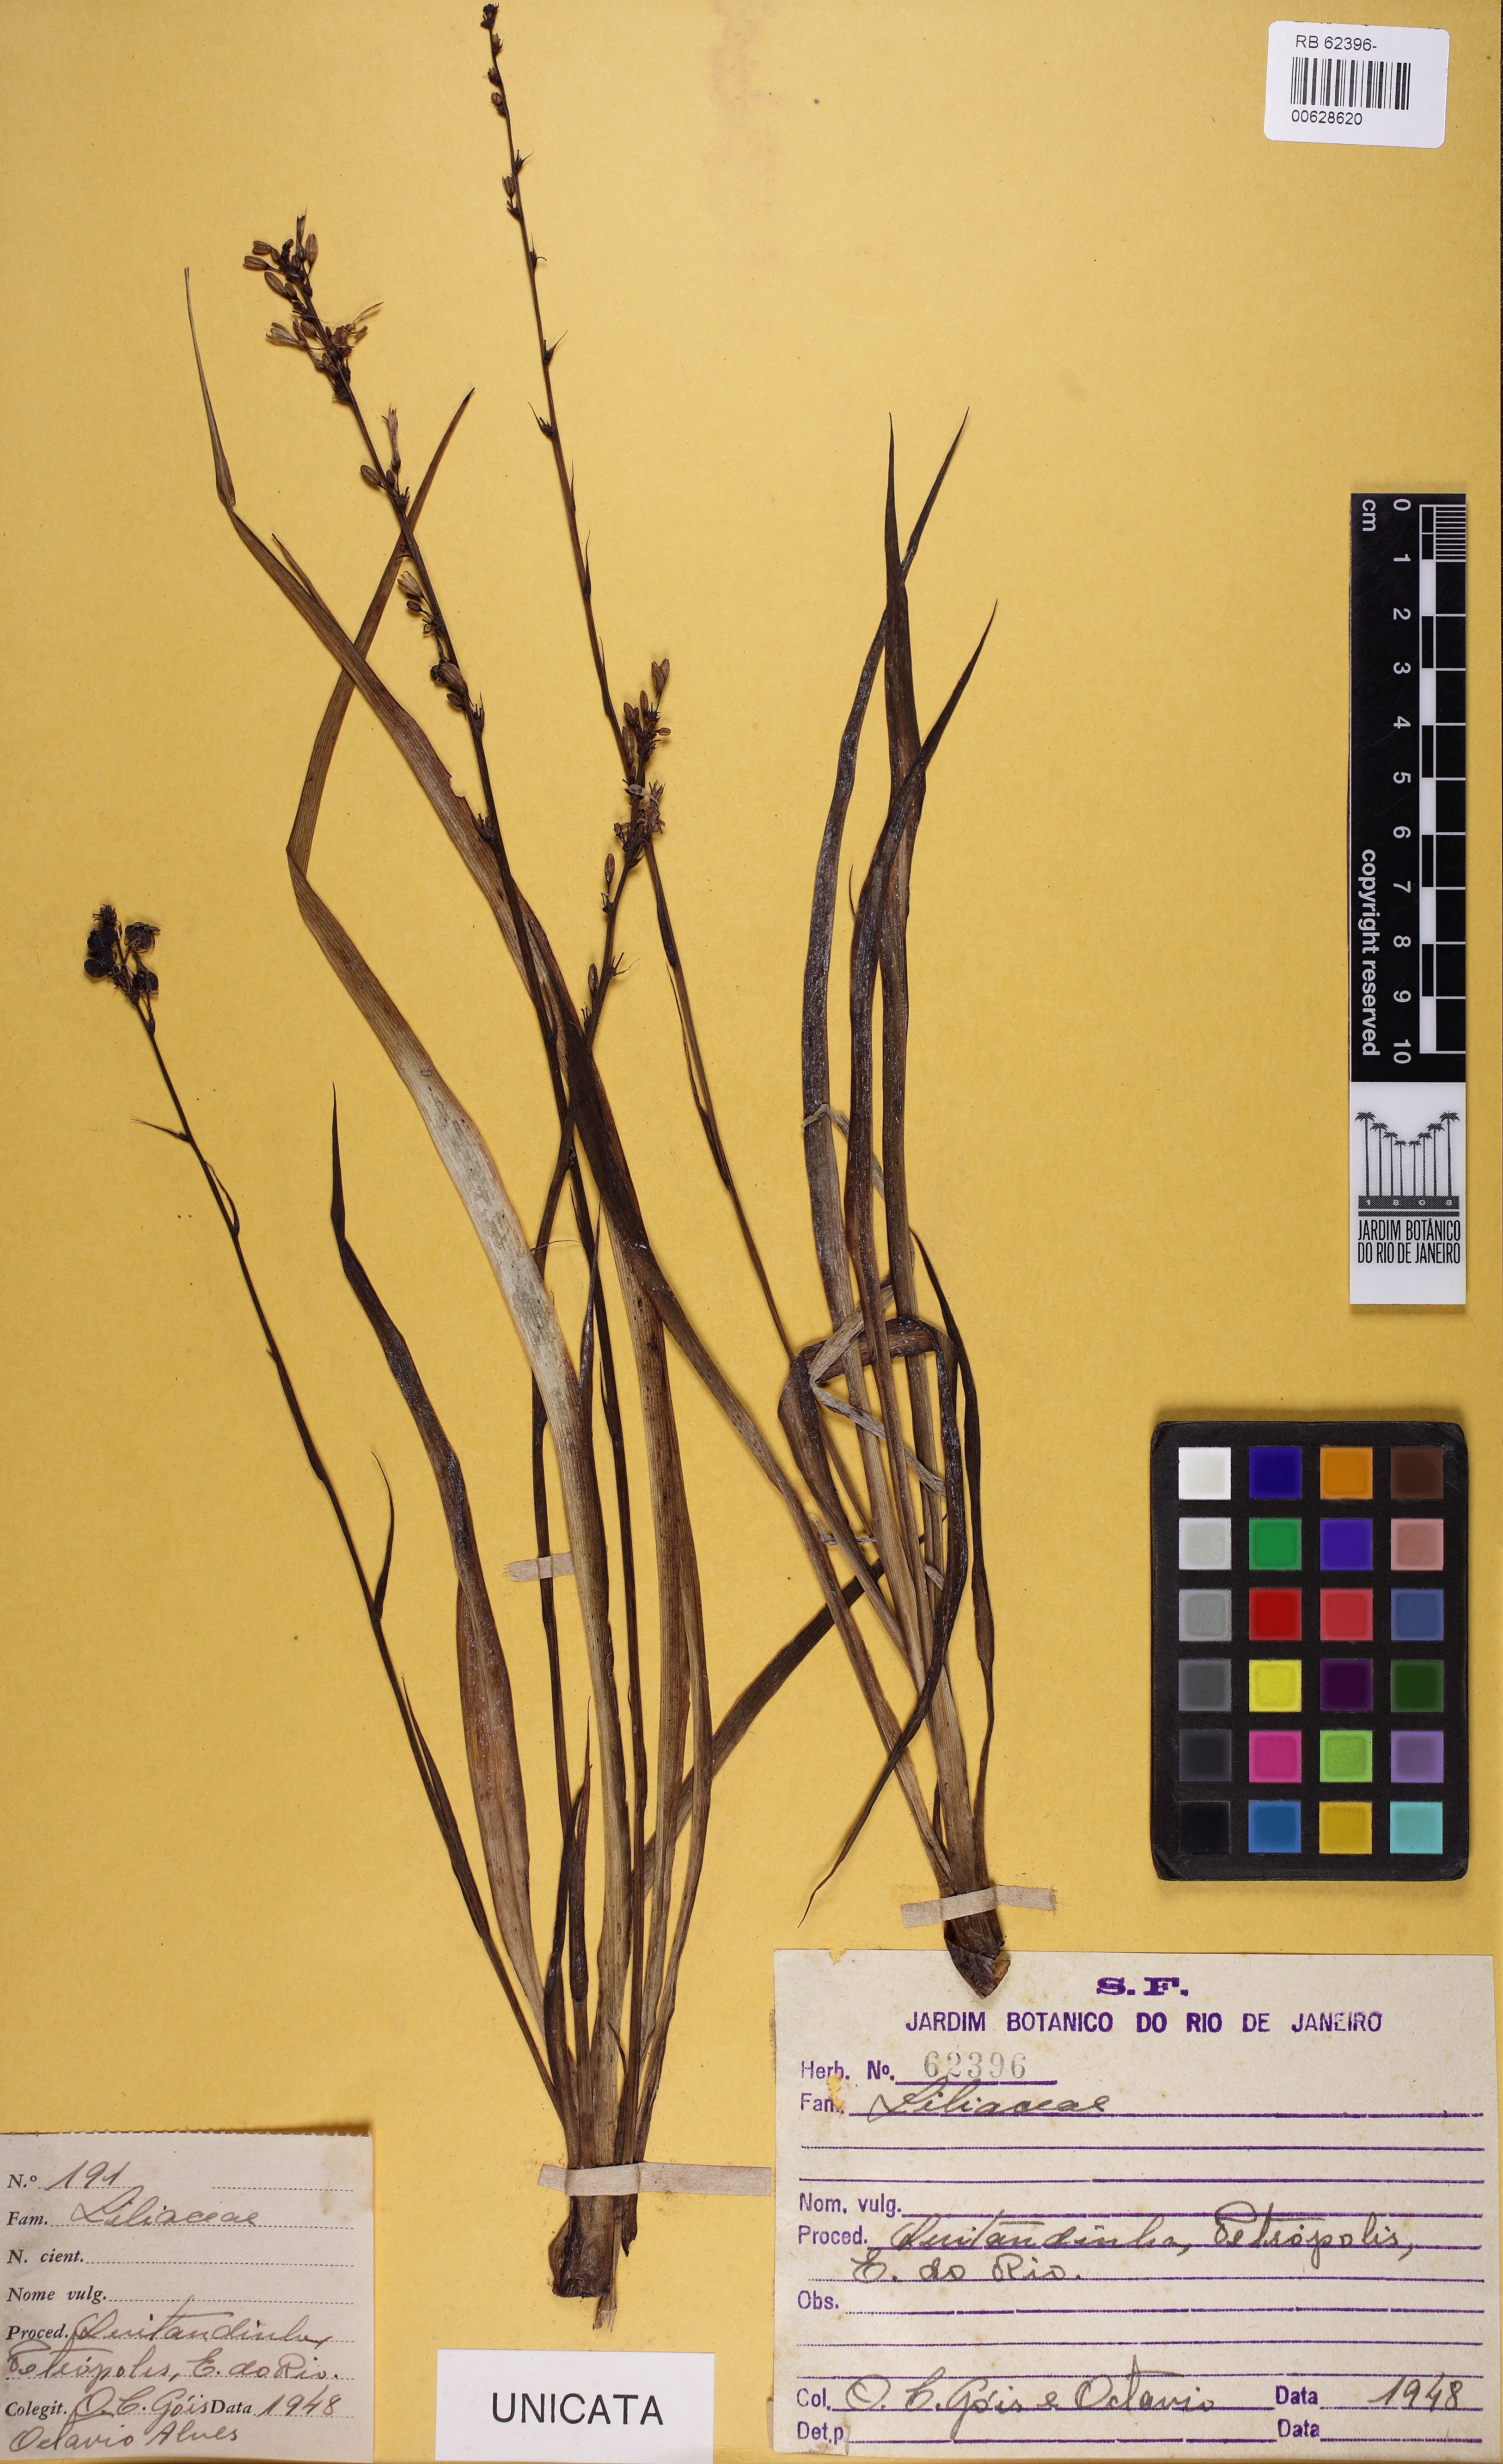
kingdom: Plantae
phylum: Tracheophyta
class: Liliopsida
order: Liliales
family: Liliaceae
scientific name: Liliaceae
